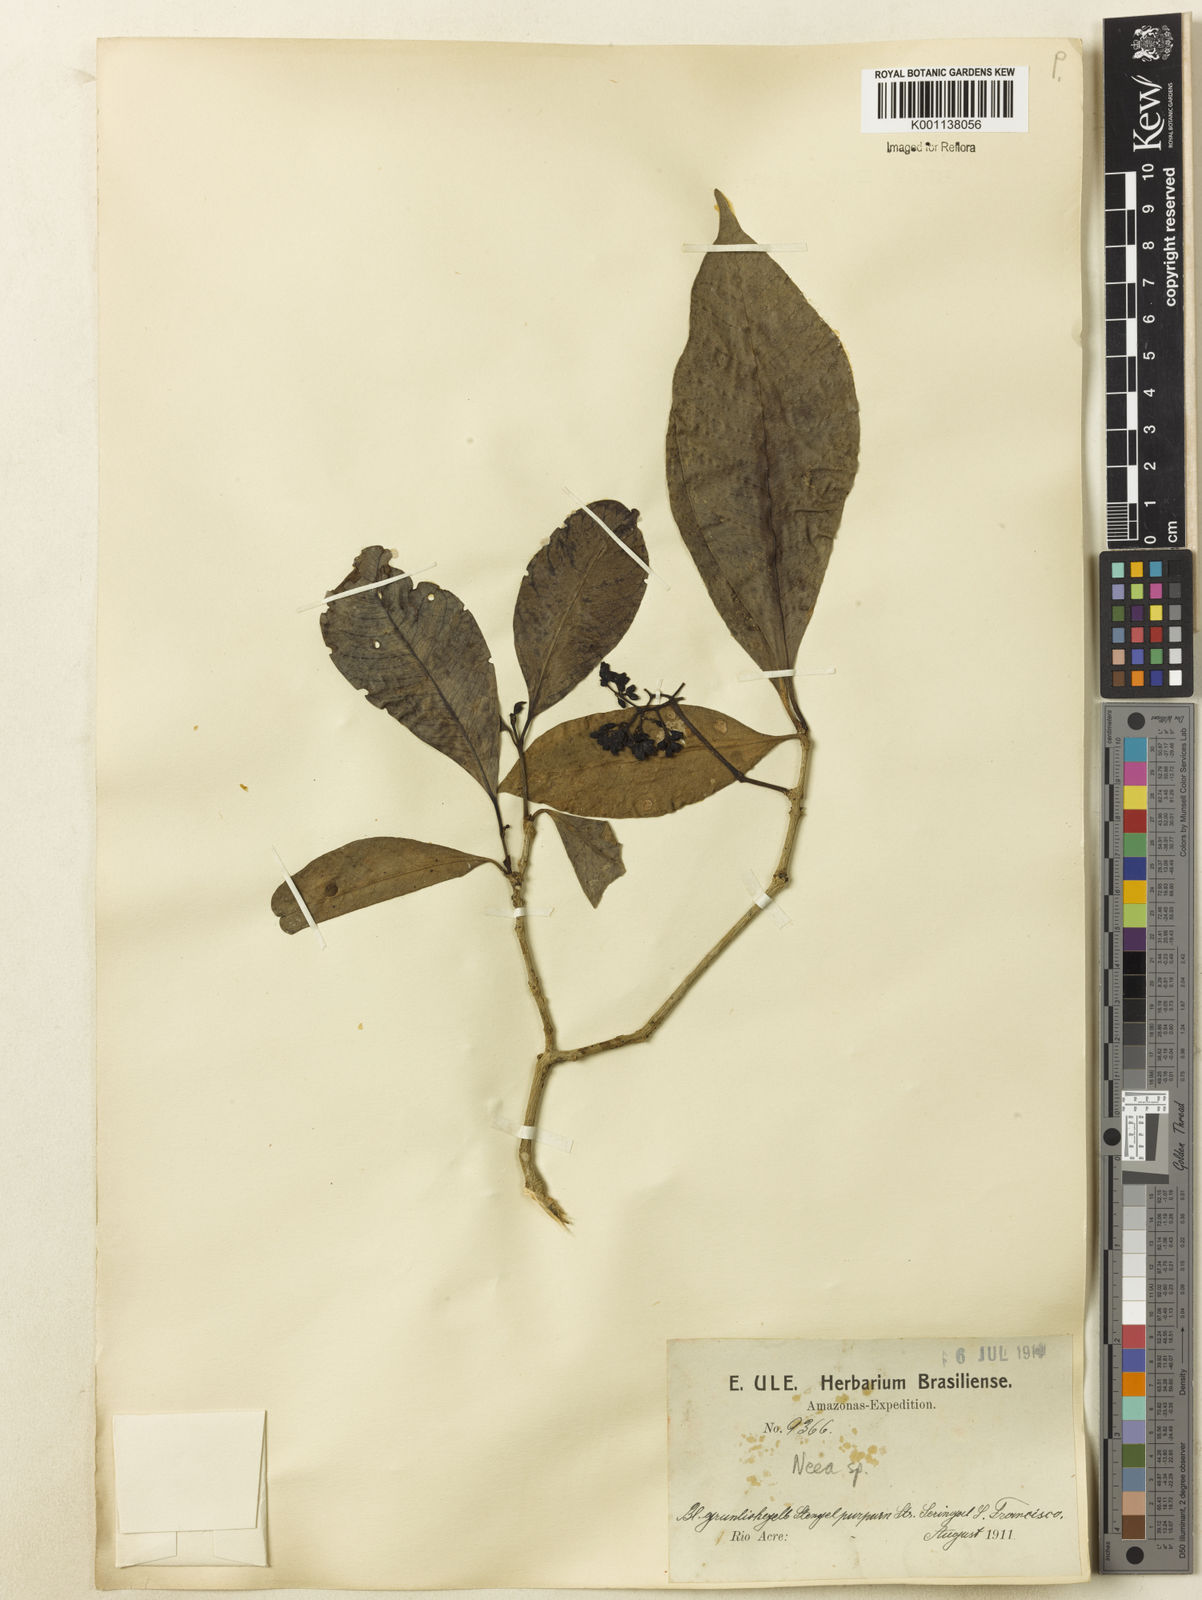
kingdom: Plantae
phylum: Tracheophyta
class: Magnoliopsida
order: Caryophyllales
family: Nyctaginaceae
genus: Neea
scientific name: Neea
